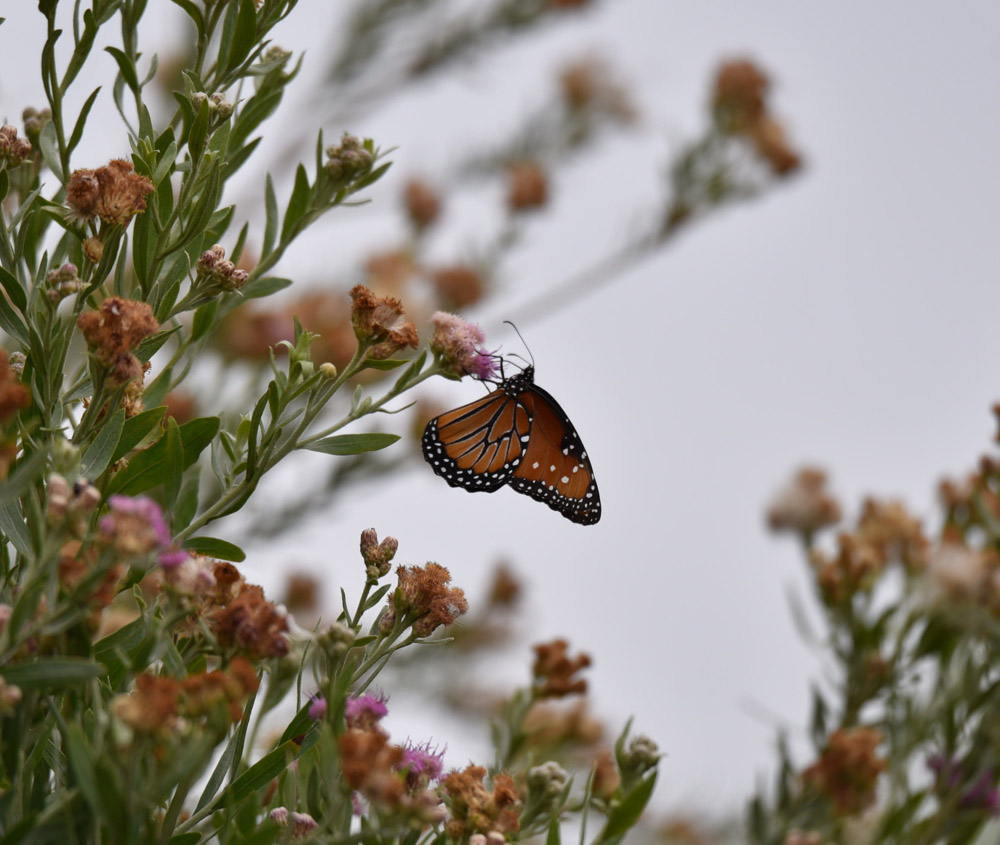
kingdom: Animalia
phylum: Arthropoda
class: Insecta
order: Lepidoptera
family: Nymphalidae
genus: Danaus
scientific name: Danaus gilippus
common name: Queen
